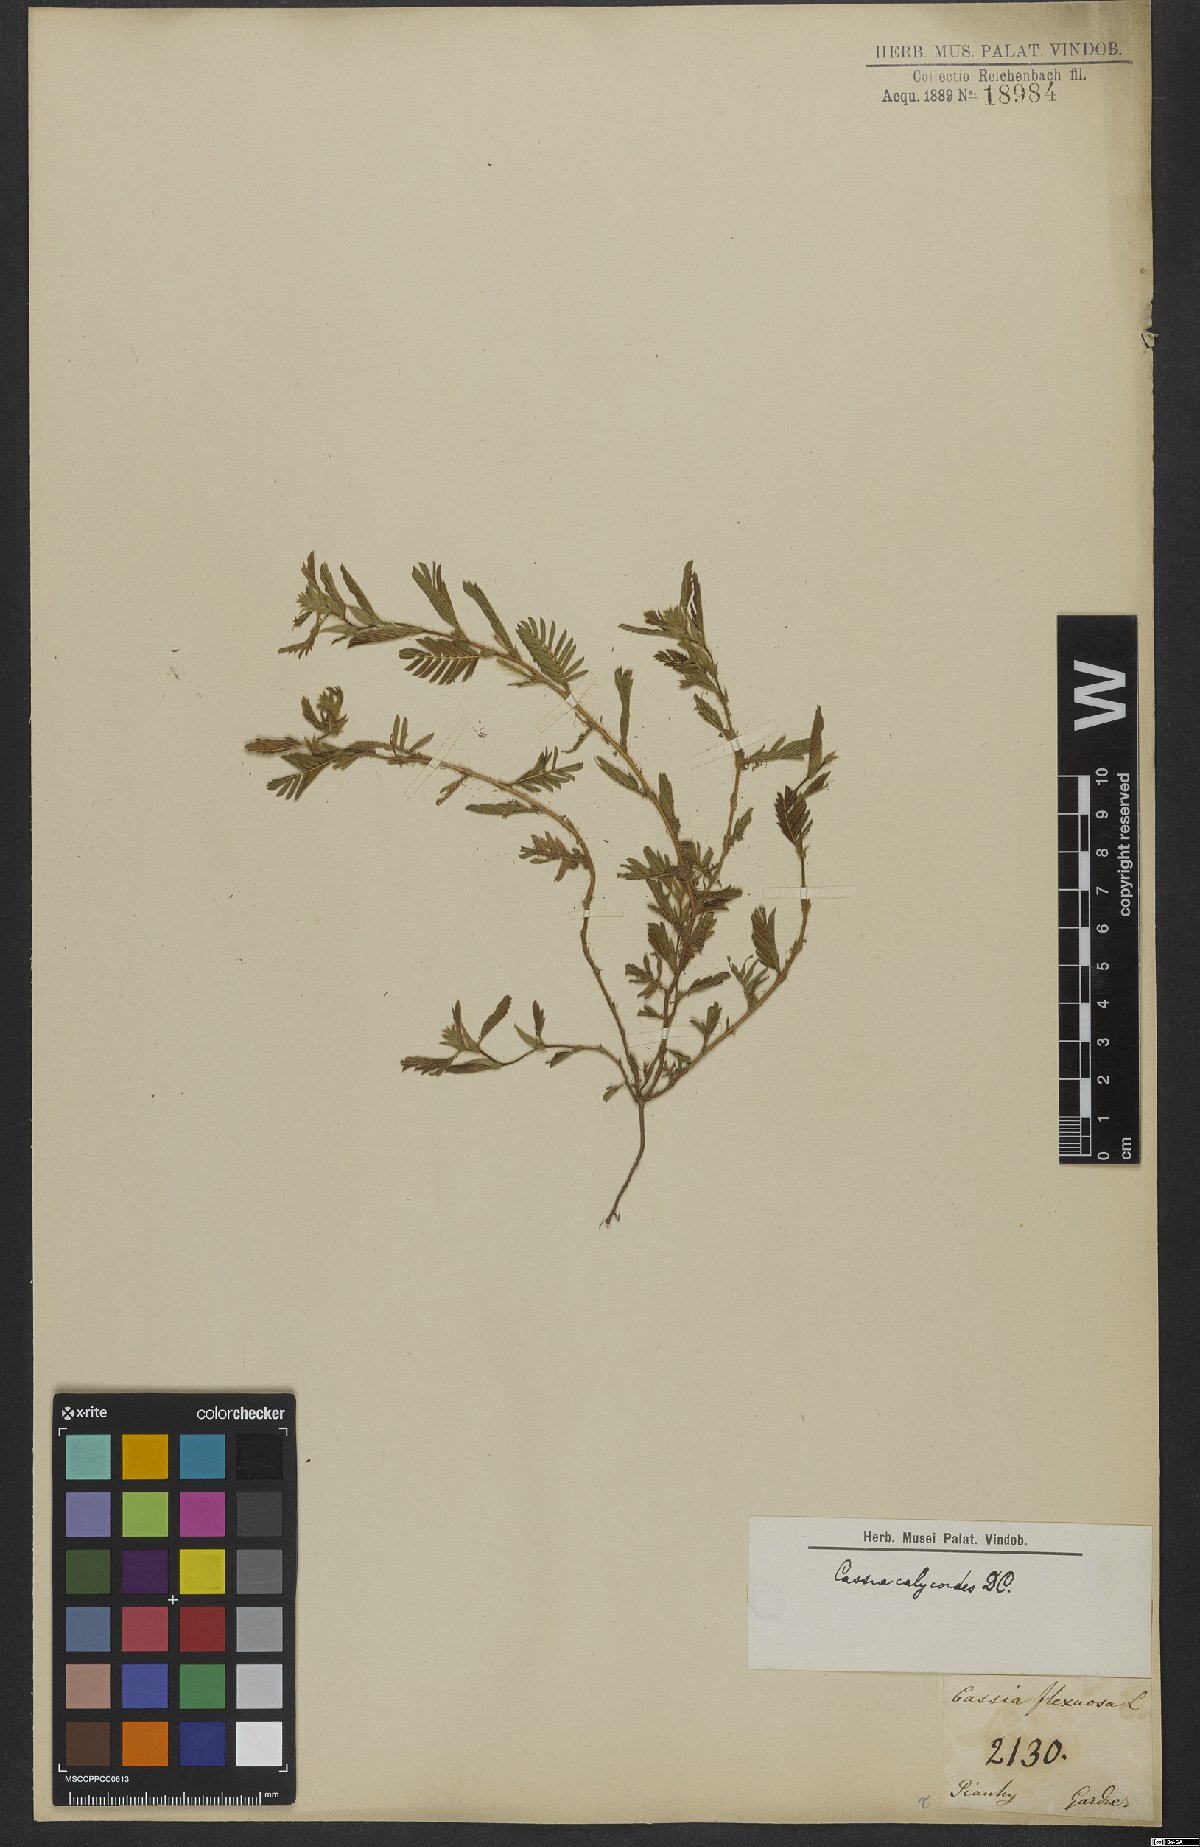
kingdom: Plantae
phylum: Tracheophyta
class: Magnoliopsida
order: Fabales
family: Fabaceae
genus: Chamaecrista
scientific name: Chamaecrista calycioides
